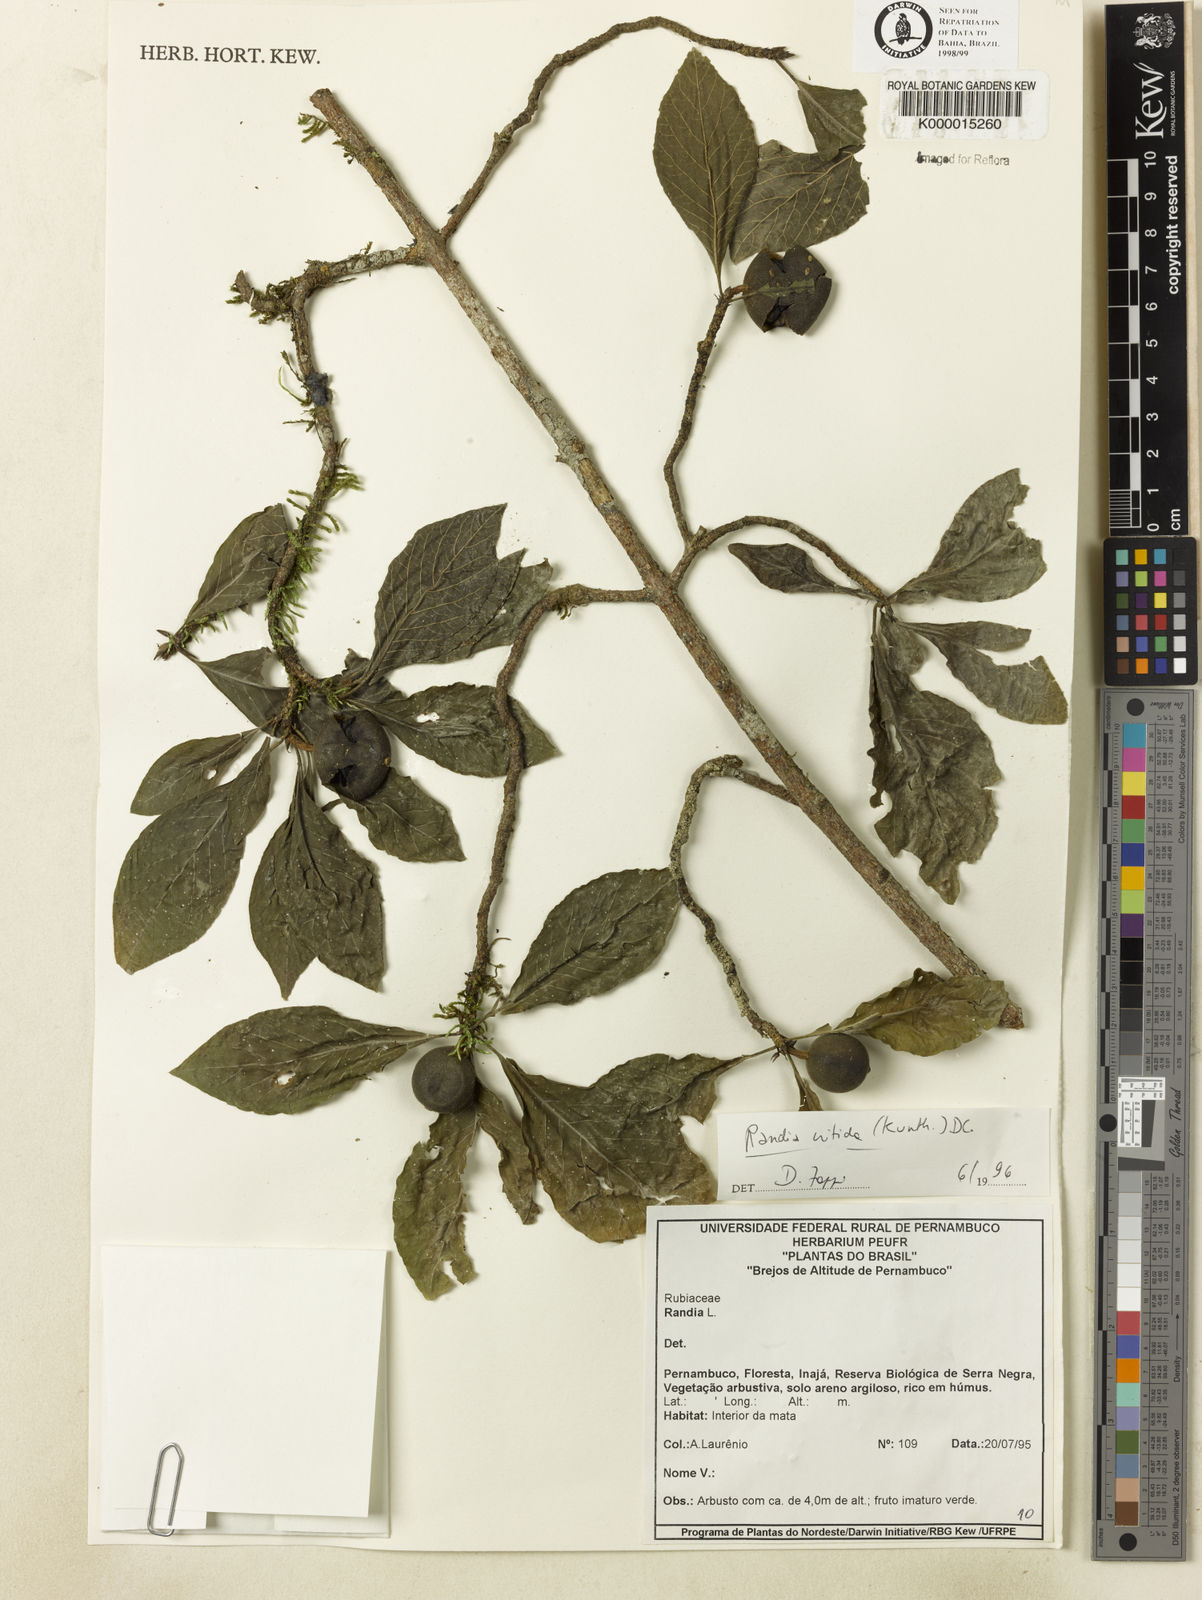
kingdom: Plantae
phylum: Tracheophyta
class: Magnoliopsida
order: Gentianales
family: Rubiaceae
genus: Randia
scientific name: Randia nitida
